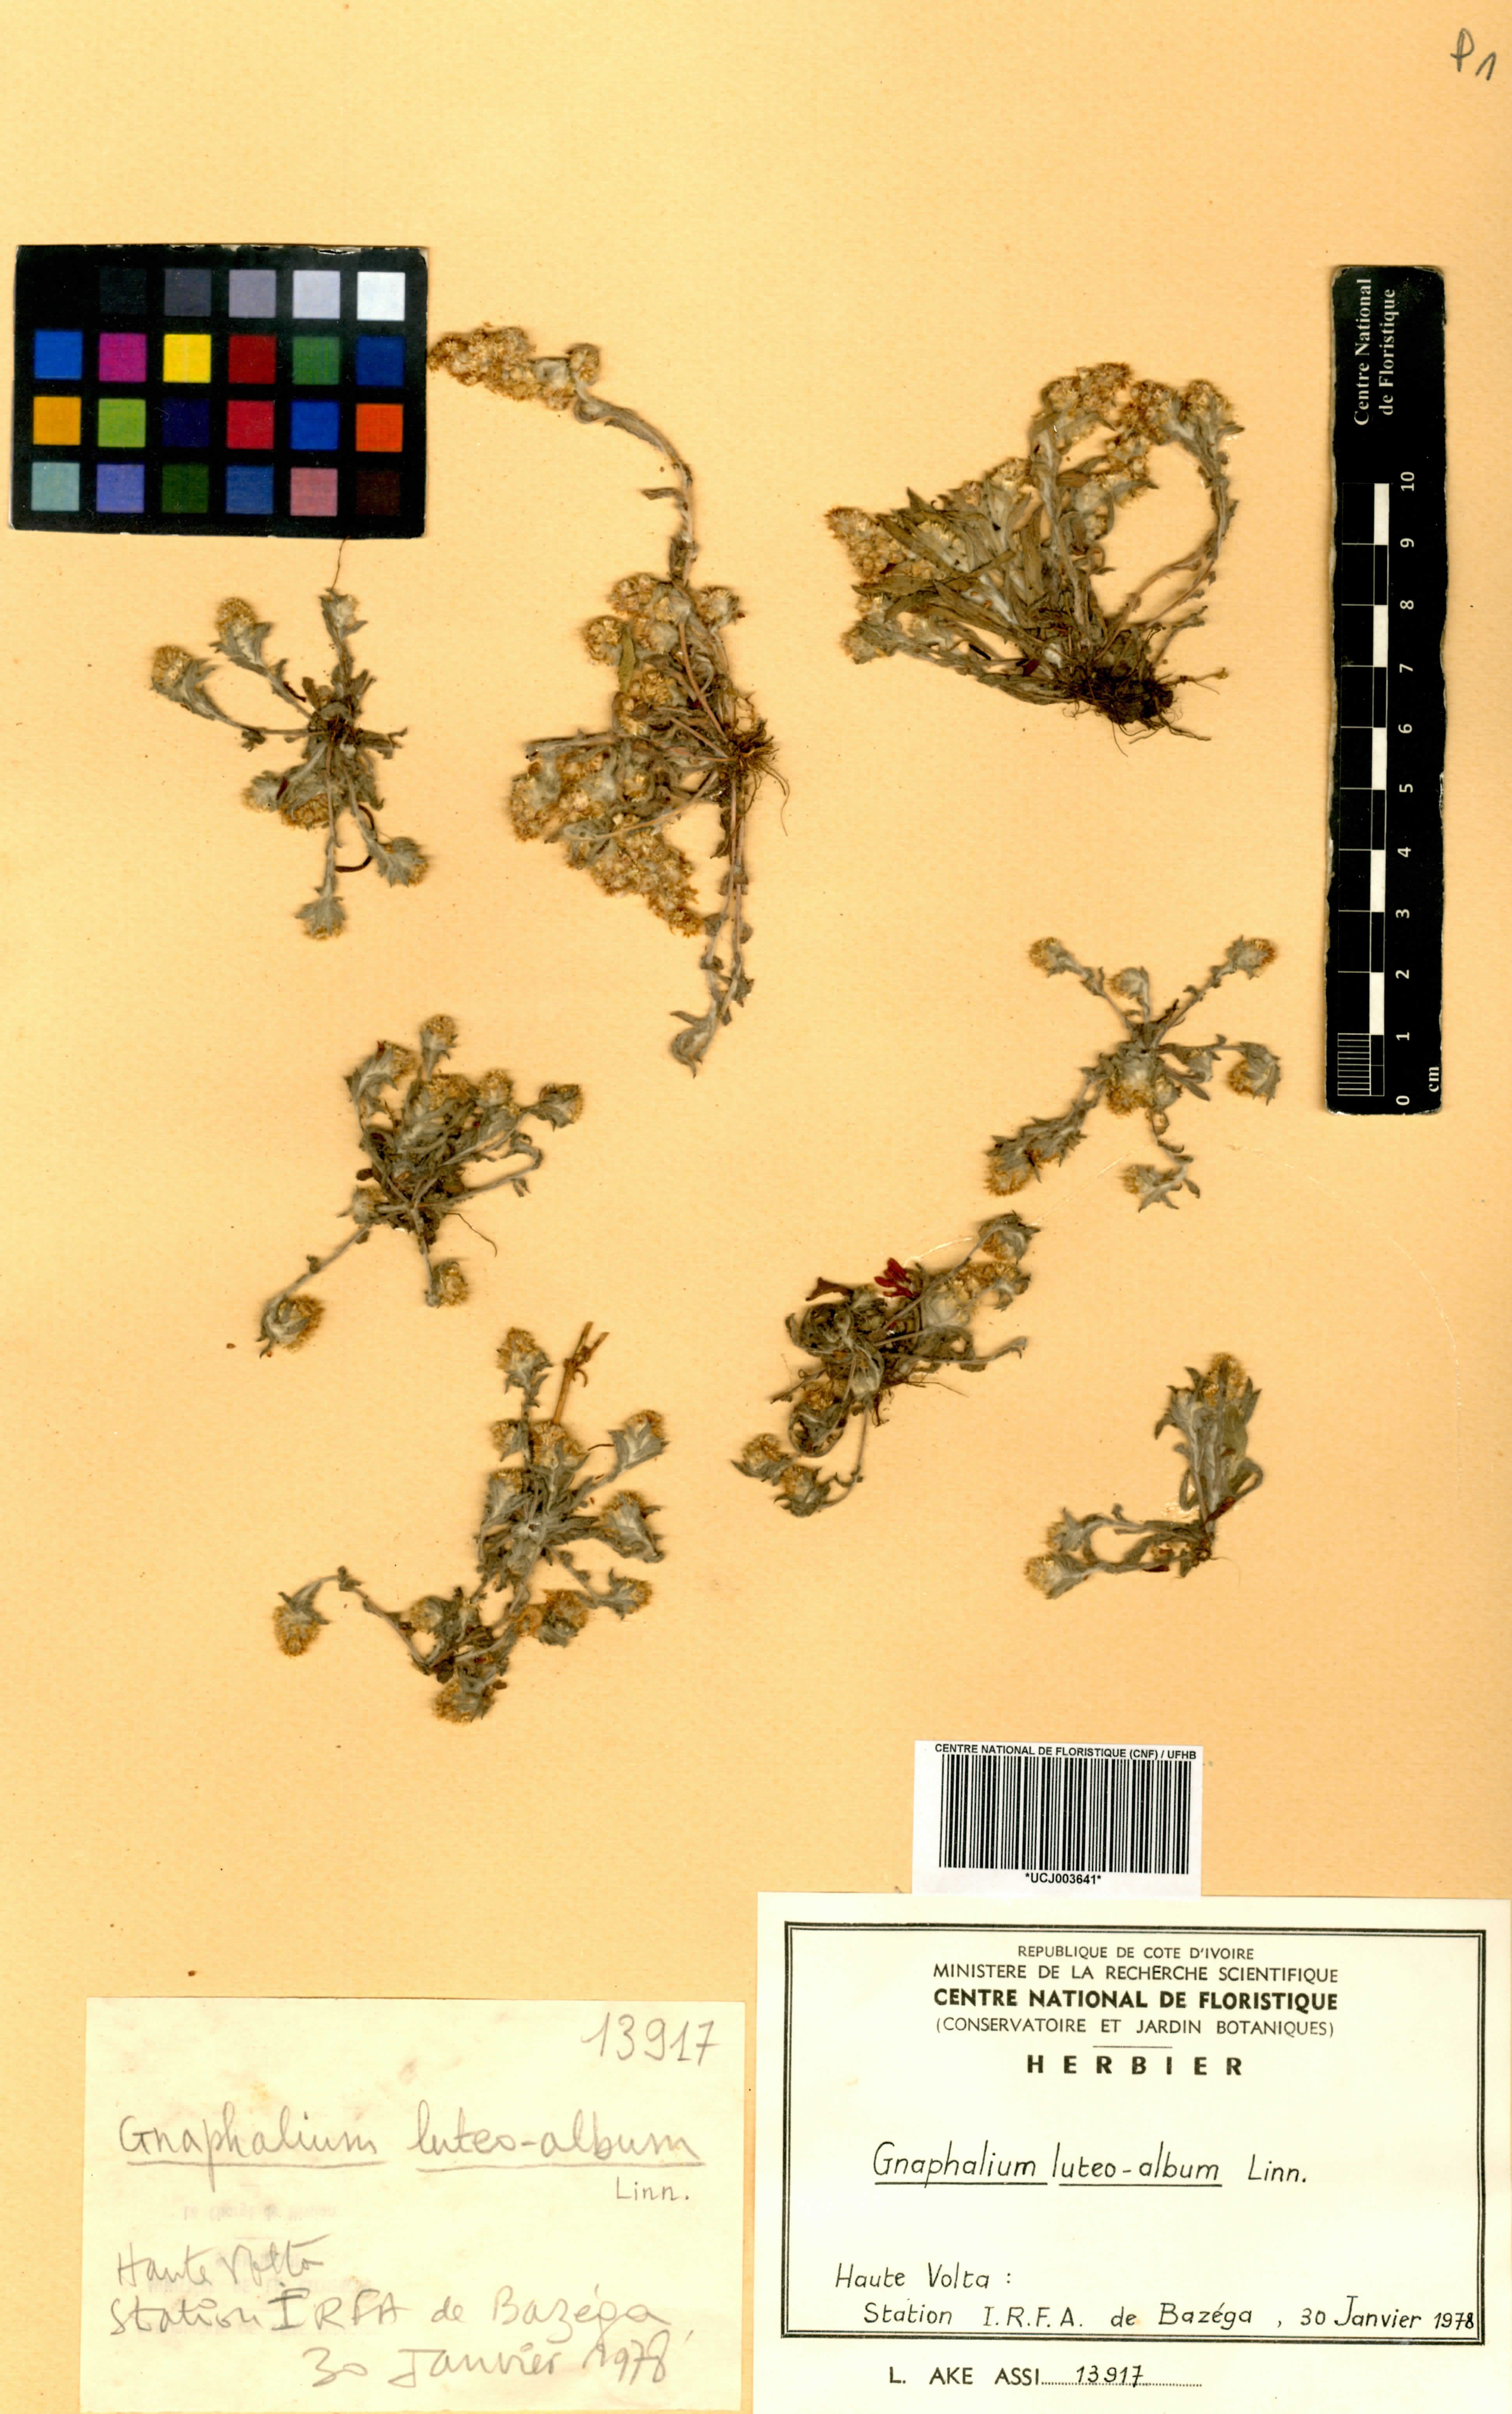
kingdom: Plantae
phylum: Tracheophyta
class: Magnoliopsida
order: Asterales
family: Asteraceae
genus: Helichrysum
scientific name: Helichrysum luteoalbum
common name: Daisy
